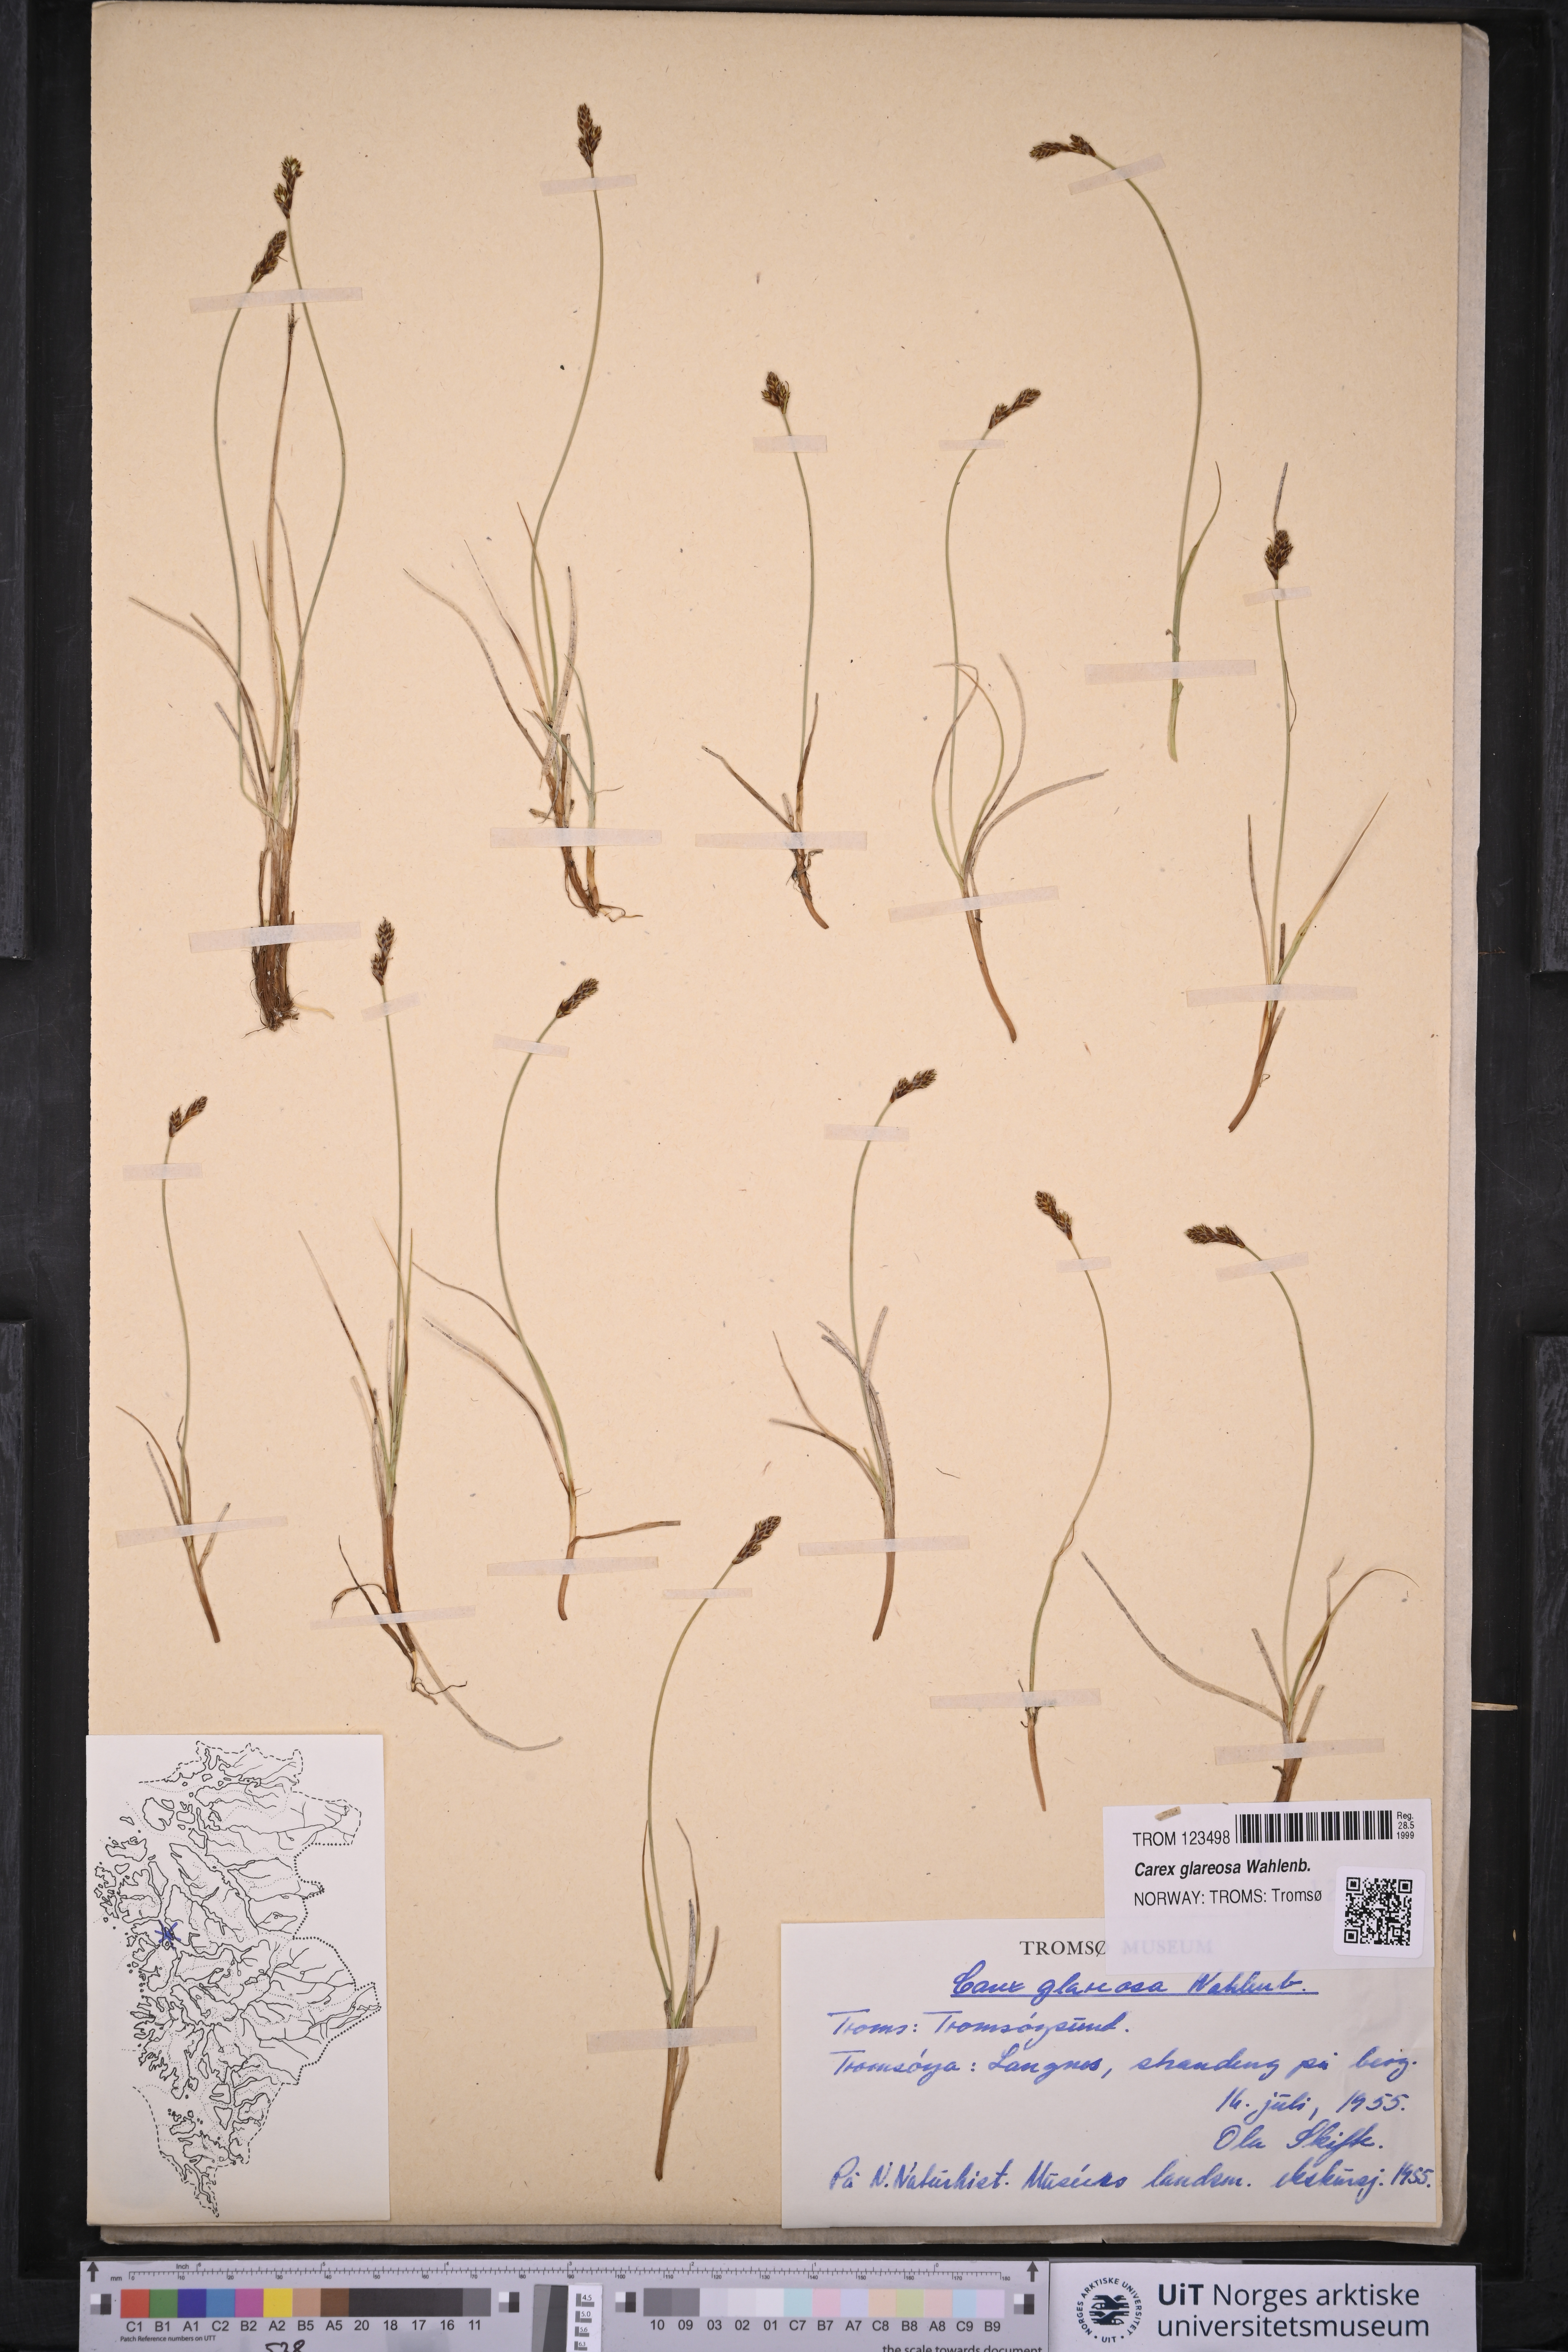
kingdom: Plantae
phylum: Tracheophyta
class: Liliopsida
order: Poales
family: Cyperaceae
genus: Carex
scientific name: Carex glareosa
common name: Clustered sedge
